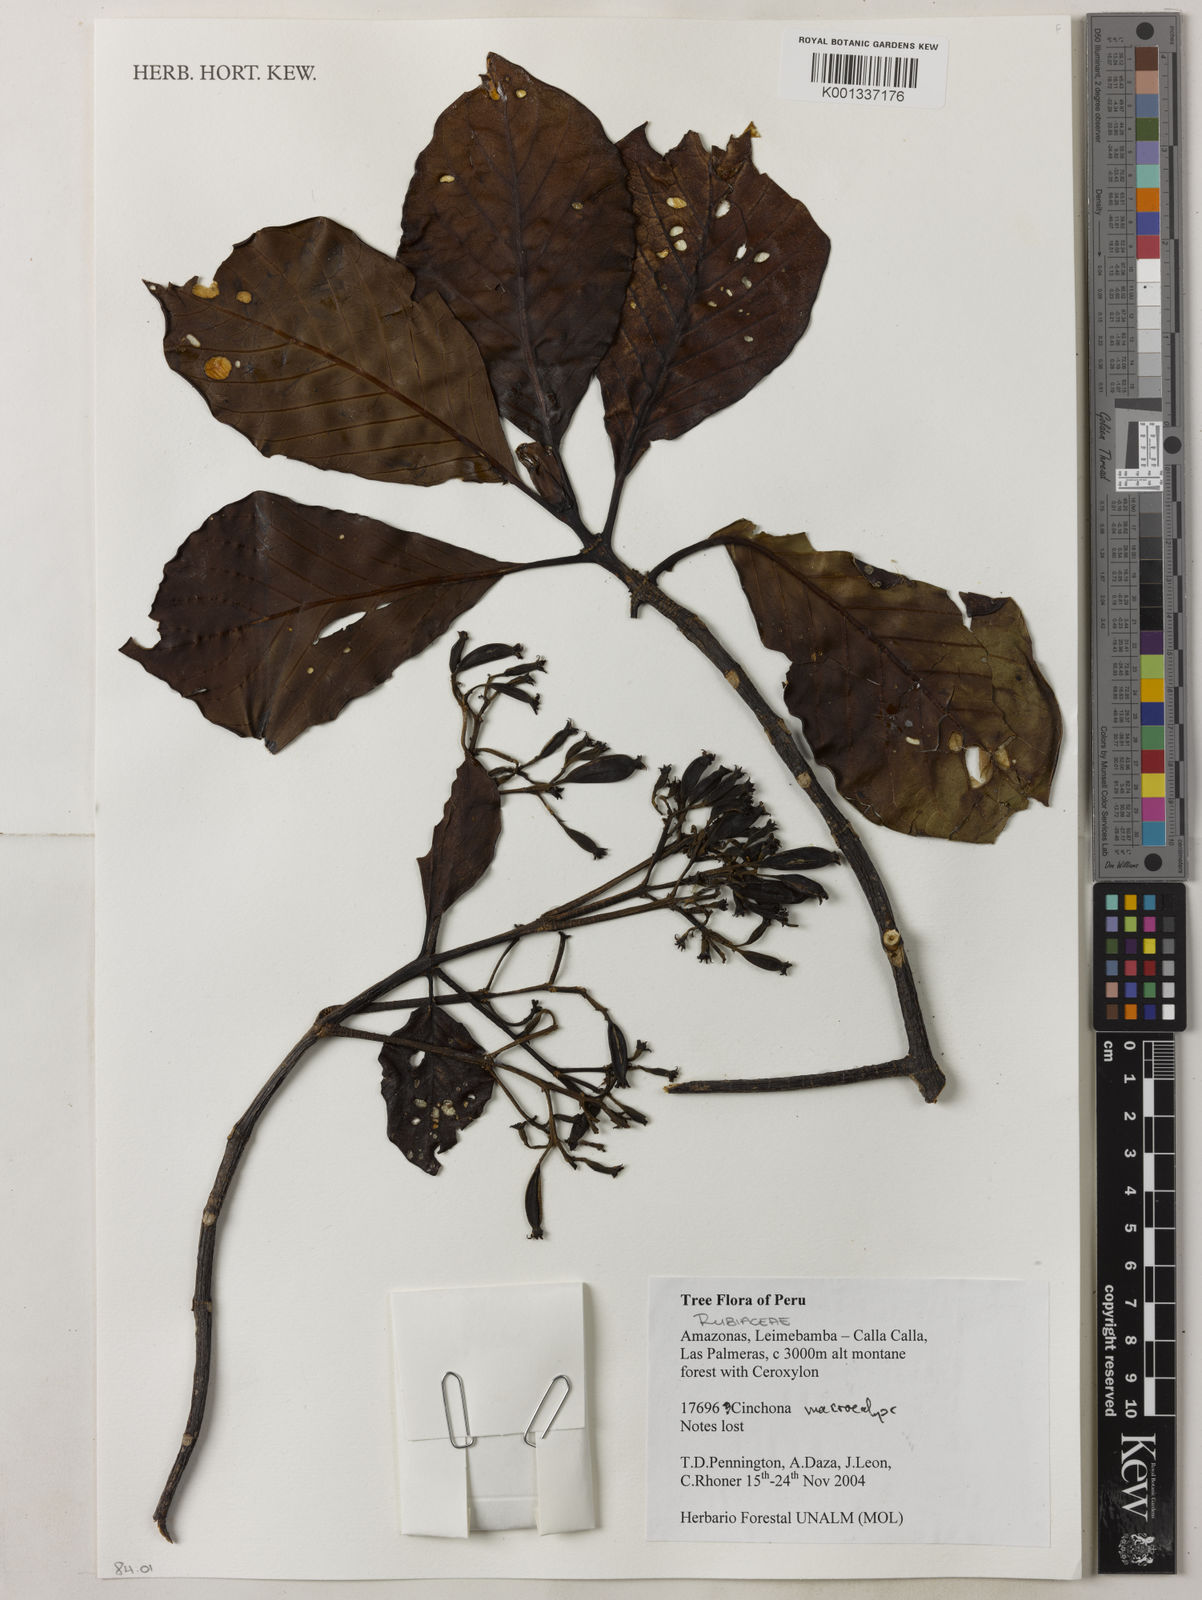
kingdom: Plantae
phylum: Tracheophyta
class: Magnoliopsida
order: Gentianales
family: Rubiaceae
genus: Cinchona
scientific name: Cinchona macrocalyx
